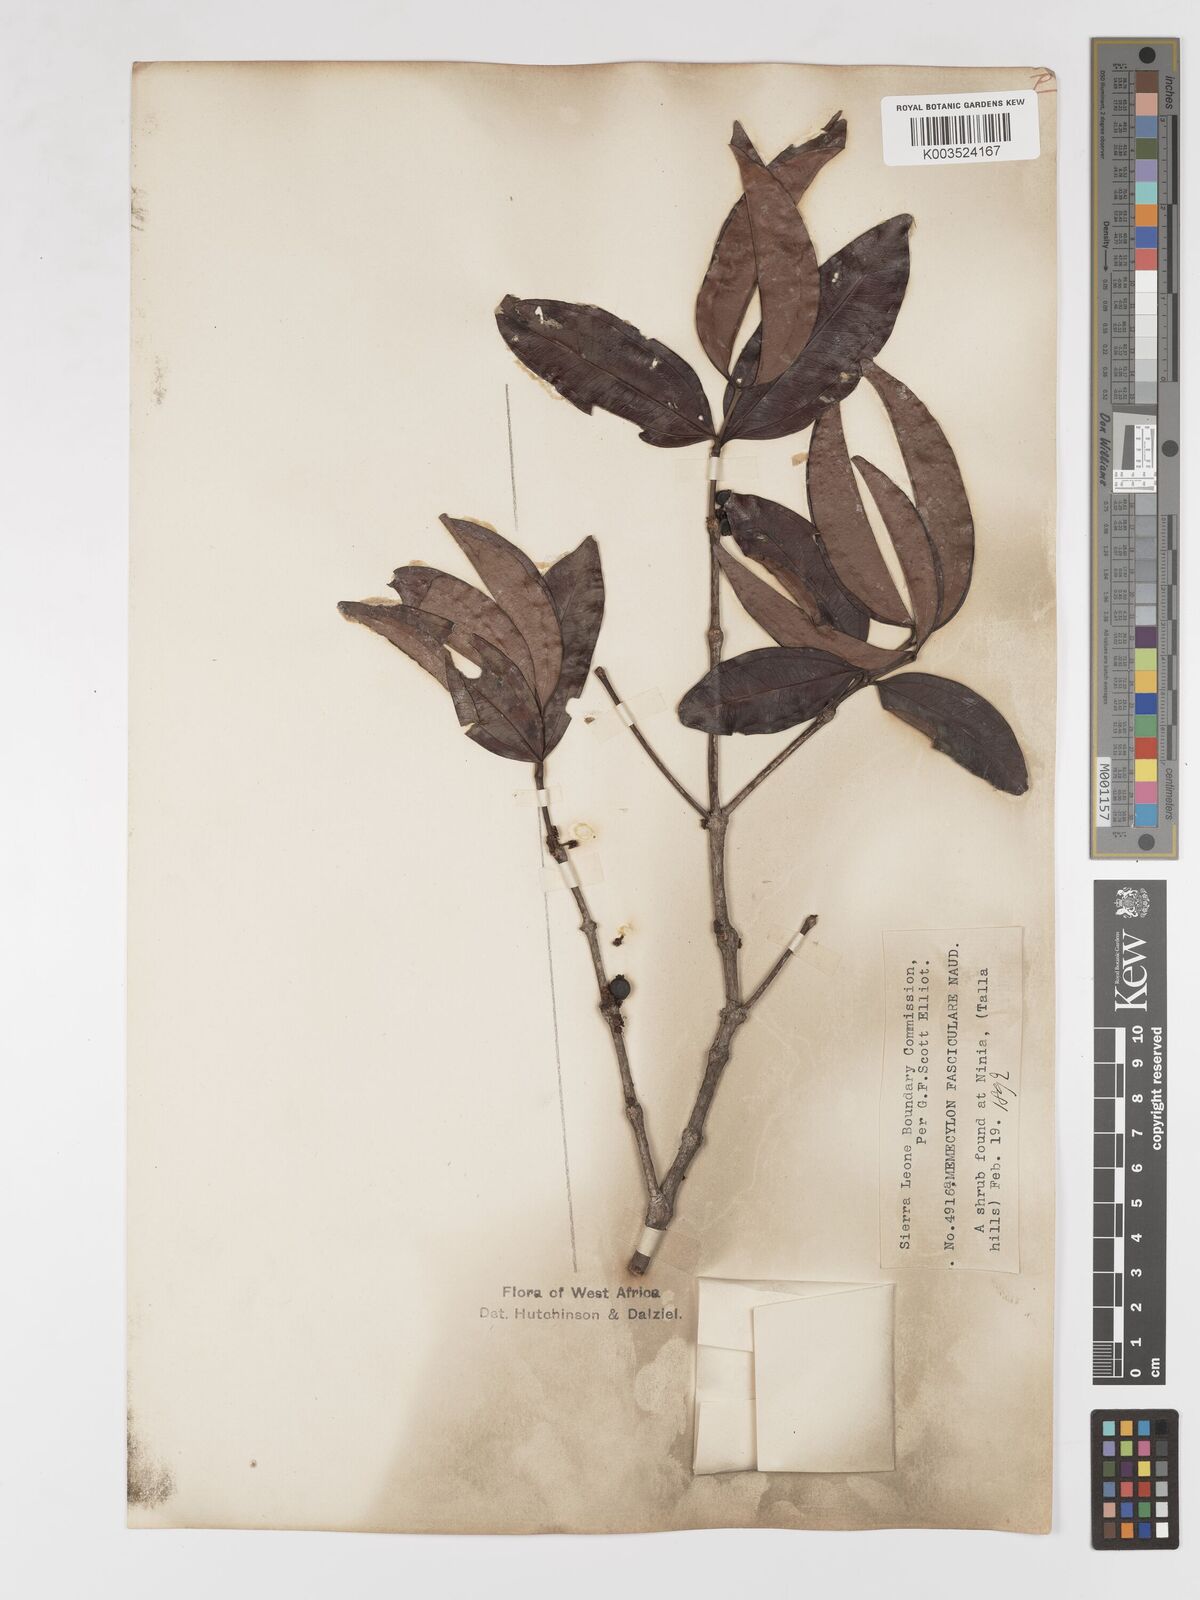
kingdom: Plantae
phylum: Tracheophyta
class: Magnoliopsida
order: Myrtales
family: Melastomataceae
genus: Warneckea
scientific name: Warneckea fascicularis
